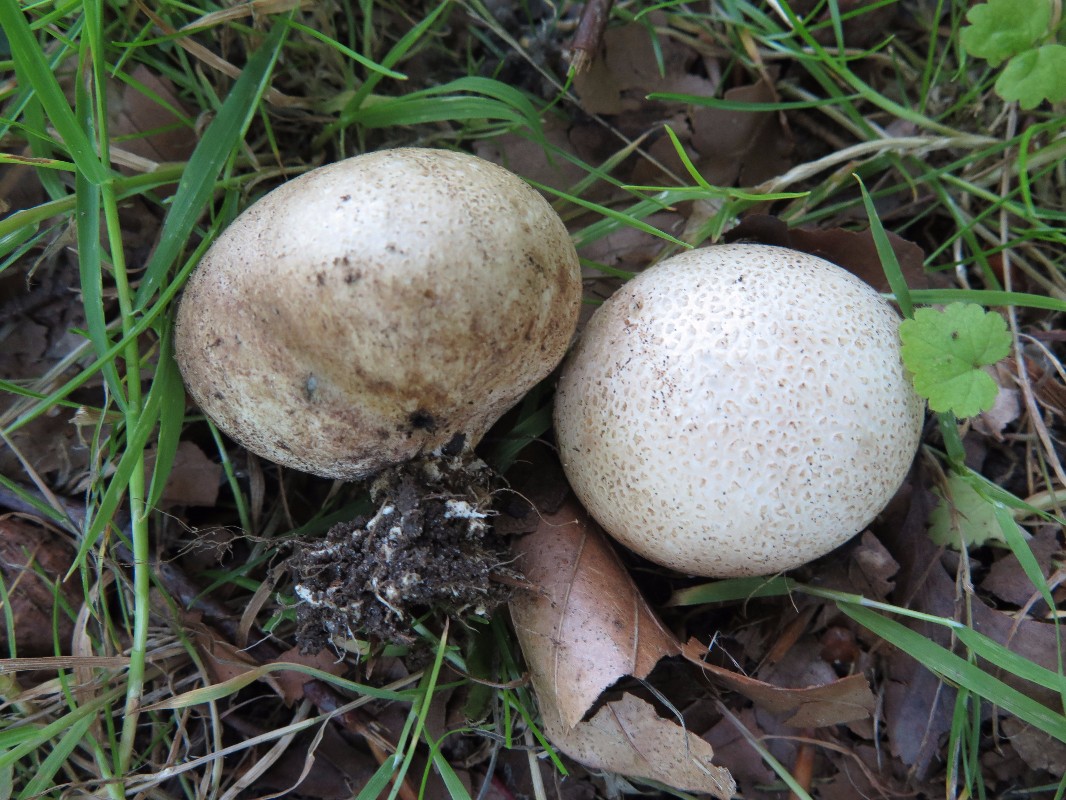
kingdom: Fungi
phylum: Basidiomycota
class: Agaricomycetes
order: Boletales
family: Sclerodermataceae
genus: Scleroderma
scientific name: Scleroderma bovista
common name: bovist-bruskbold
